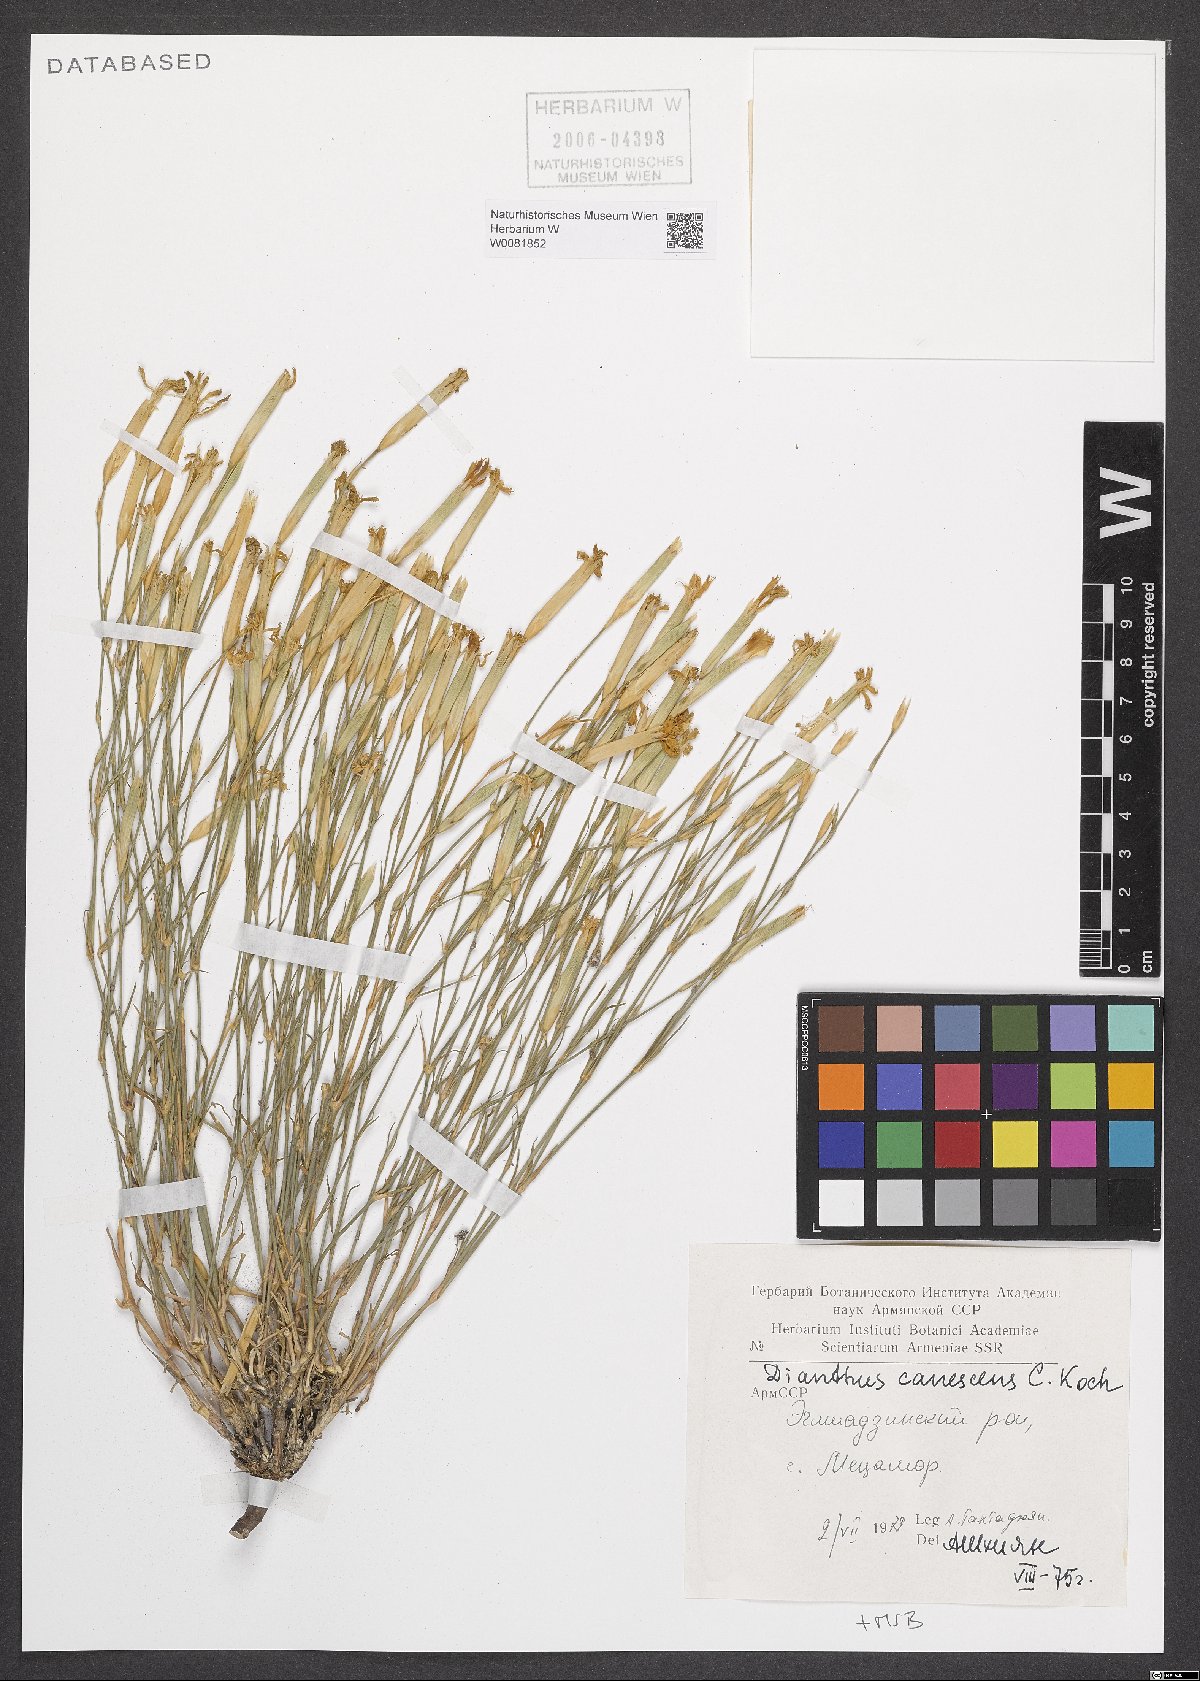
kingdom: Plantae
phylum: Tracheophyta
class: Magnoliopsida
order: Caryophyllales
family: Caryophyllaceae
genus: Dianthus
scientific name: Dianthus orientalis
